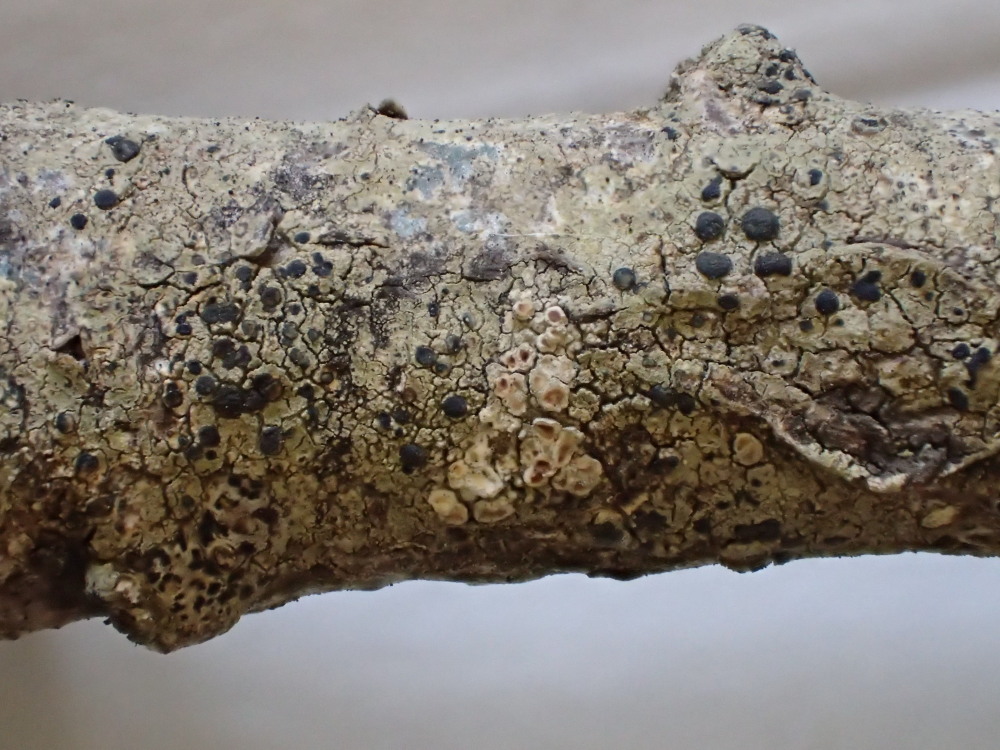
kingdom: Fungi
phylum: Ascomycota
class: Lecanoromycetes
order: Lecanorales
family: Lecanoraceae
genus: Lecidella
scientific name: Lecidella euphorea
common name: vortet skivelav
